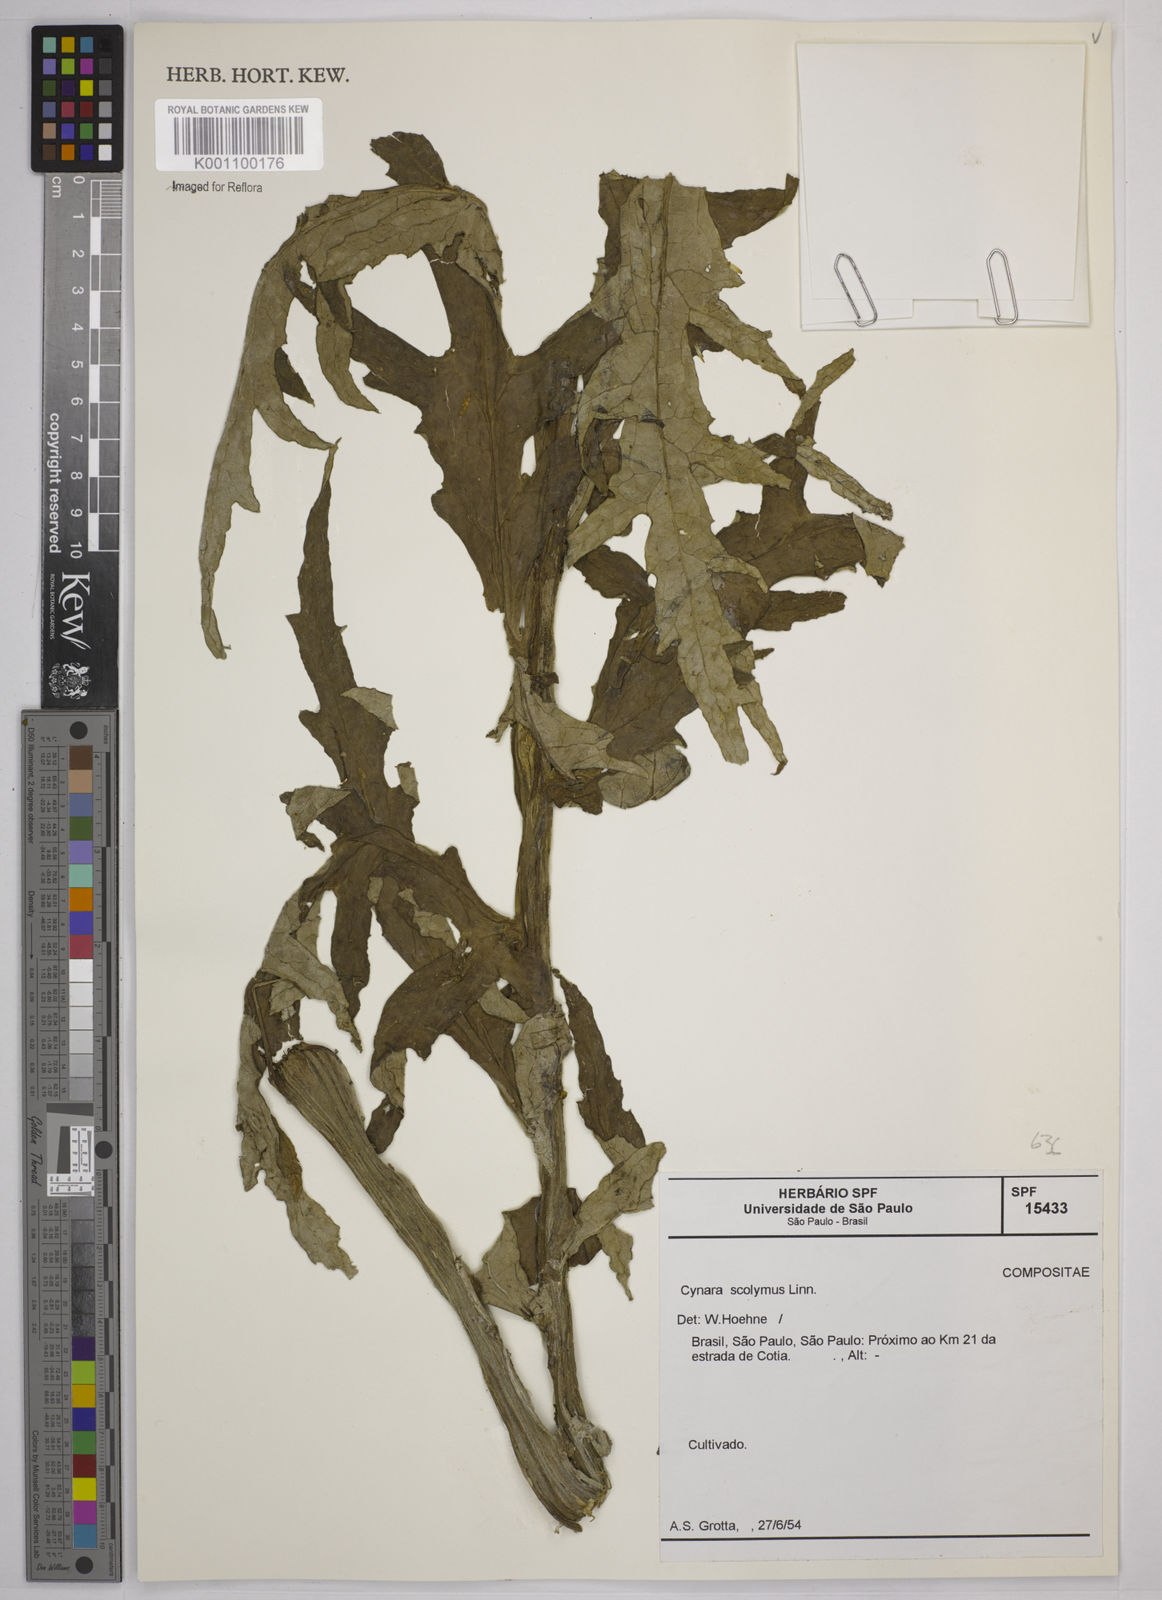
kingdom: Plantae
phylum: Tracheophyta
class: Magnoliopsida
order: Asterales
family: Asteraceae
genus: Cynara
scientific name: Cynara cardunculus
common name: Globe artichoke
